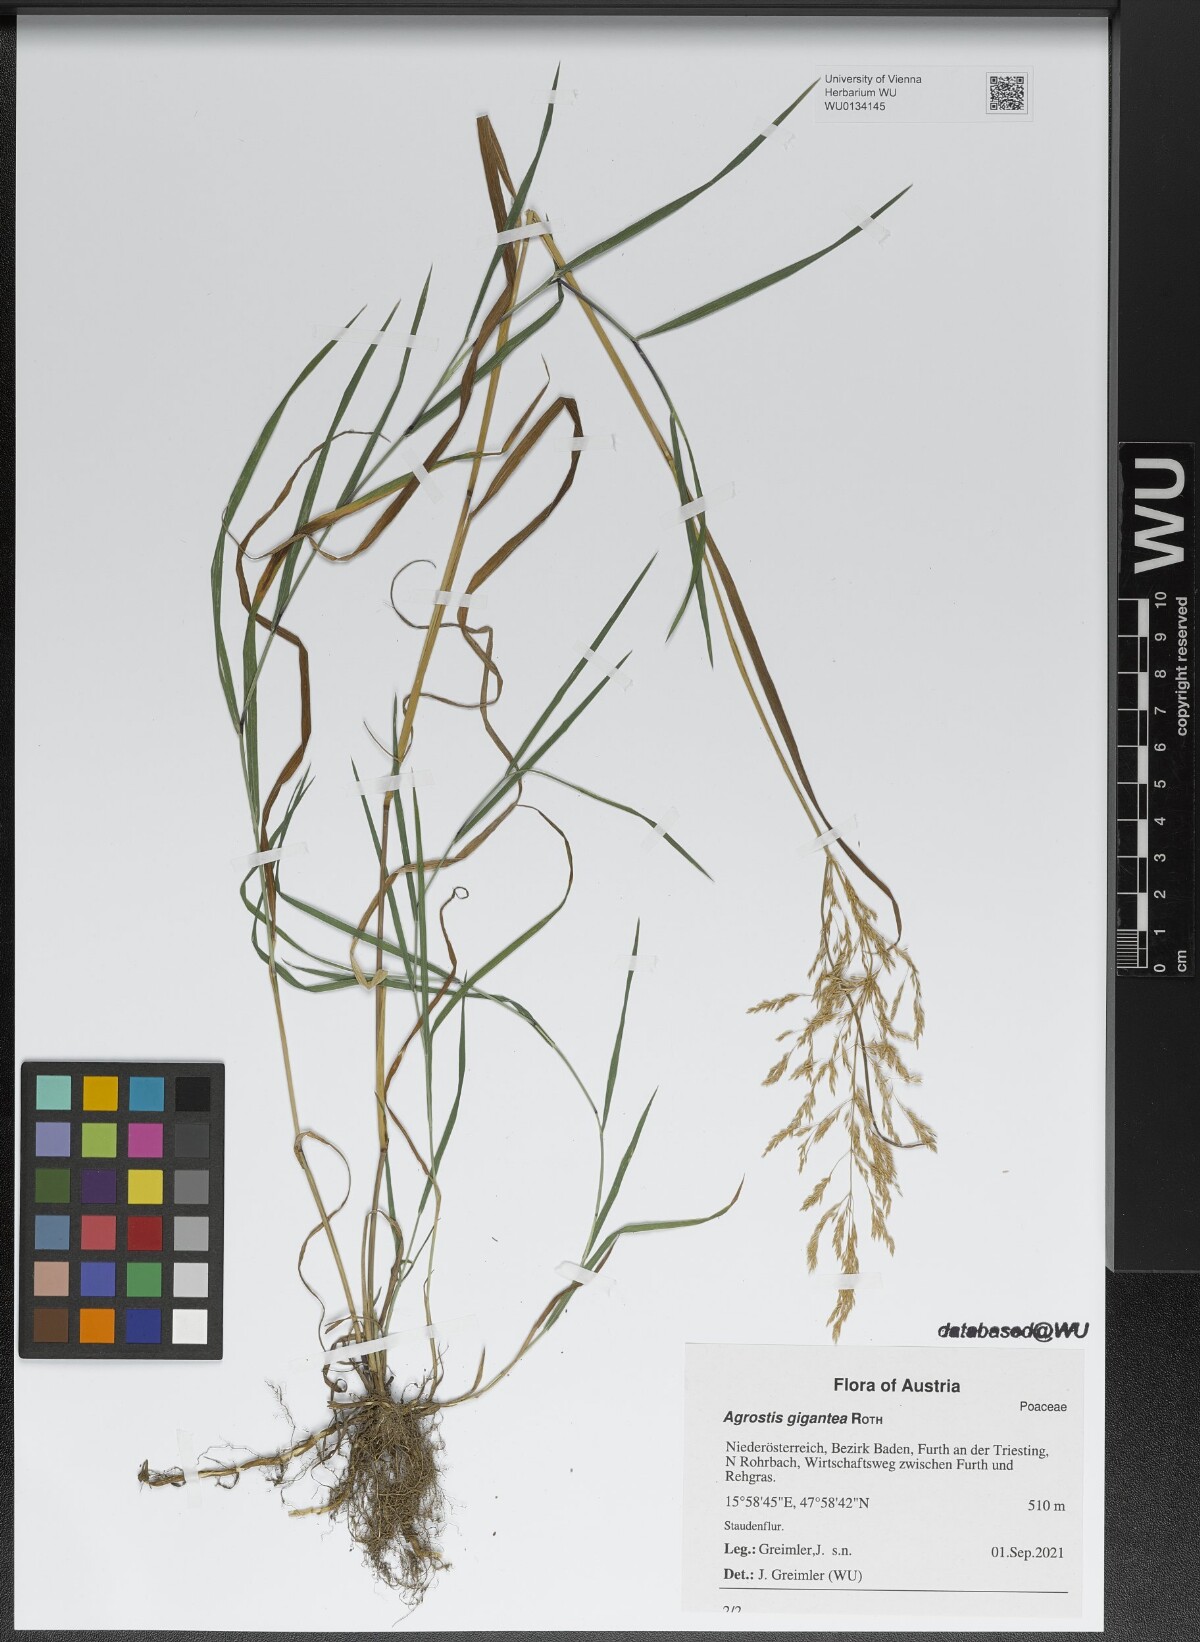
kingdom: Plantae
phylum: Tracheophyta
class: Liliopsida
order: Poales
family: Poaceae
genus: Agrostis
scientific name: Agrostis gigantea
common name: Black bent
